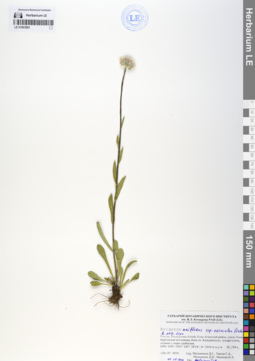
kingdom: Plantae
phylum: Tracheophyta
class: Magnoliopsida
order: Asterales
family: Asteraceae
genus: Erigeron
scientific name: Erigeron eriocalyx
